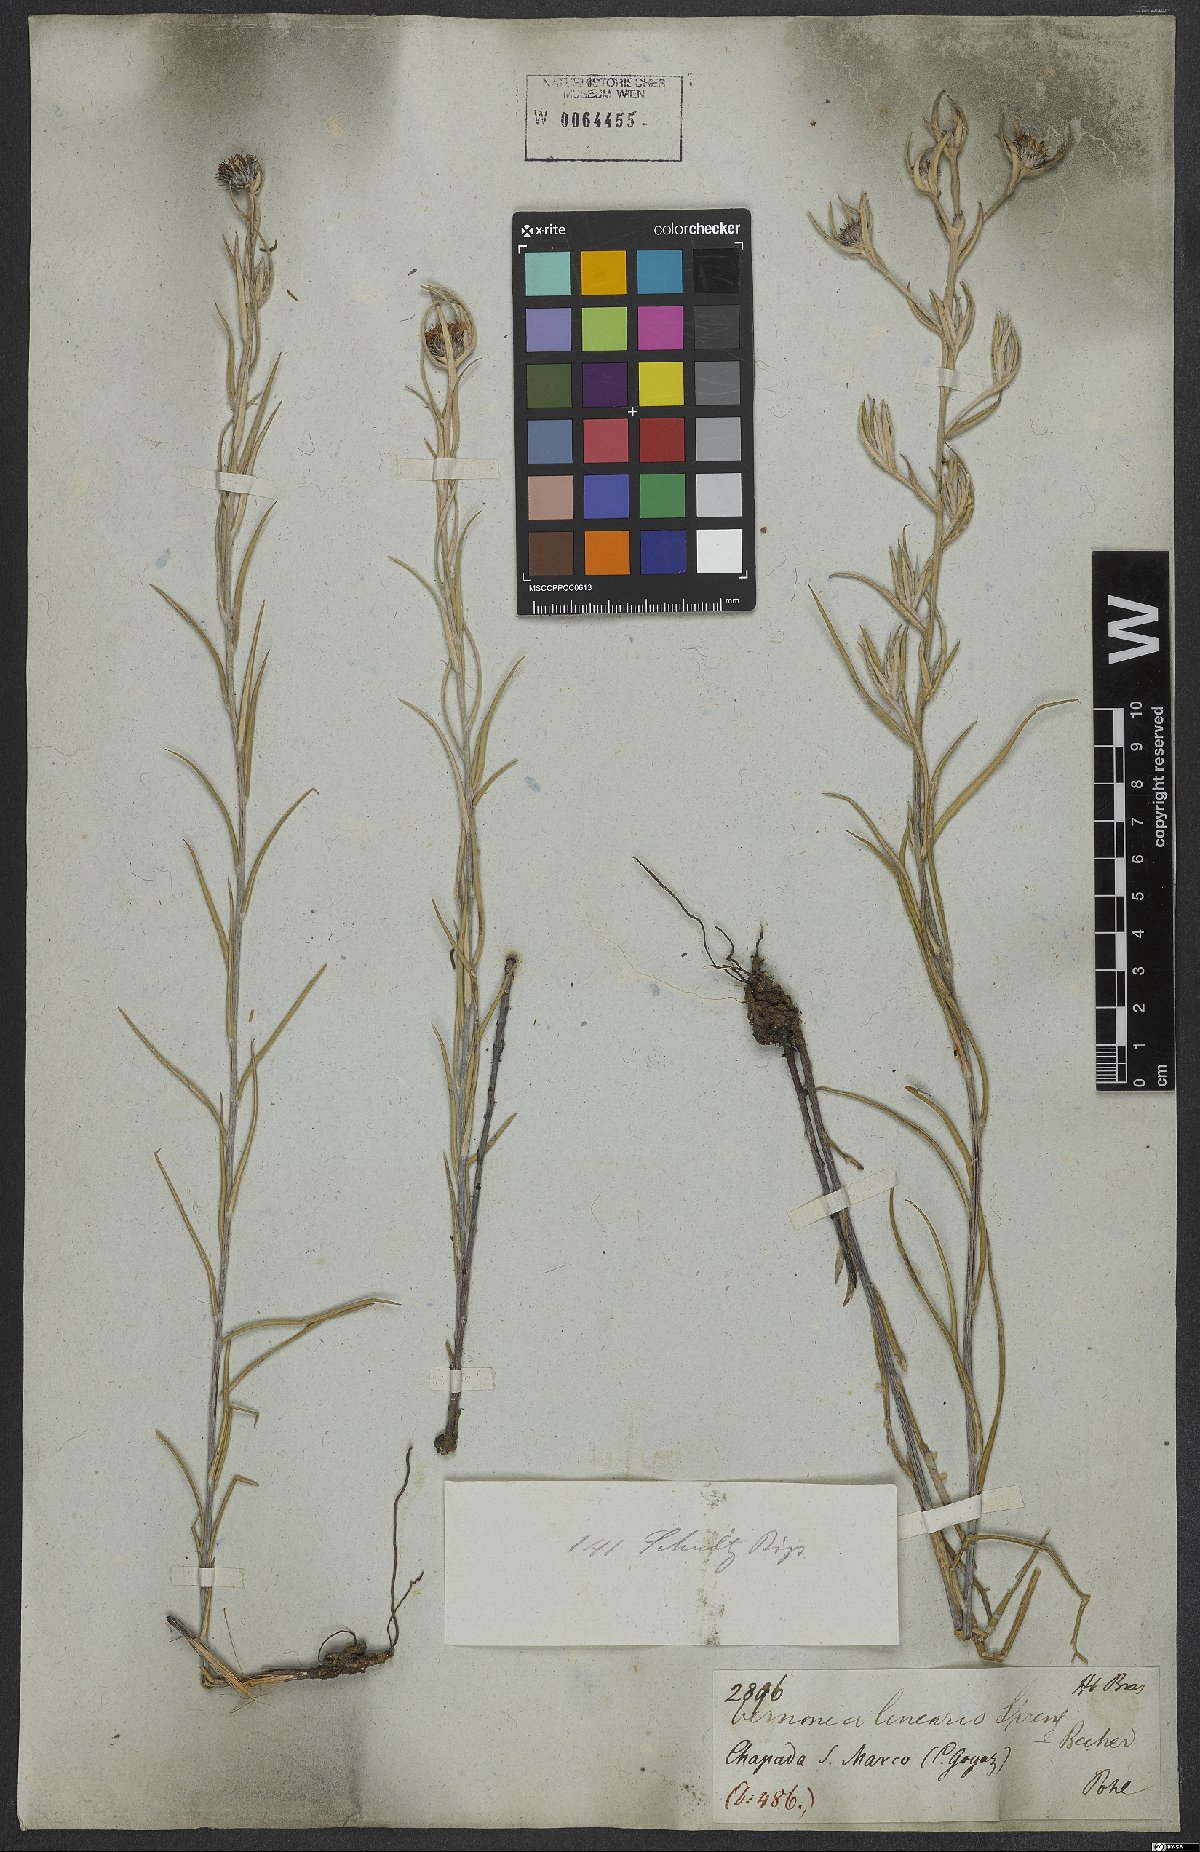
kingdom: Plantae
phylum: Tracheophyta
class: Magnoliopsida
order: Asterales
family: Asteraceae
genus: Lessingianthus
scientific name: Lessingianthus linearis
